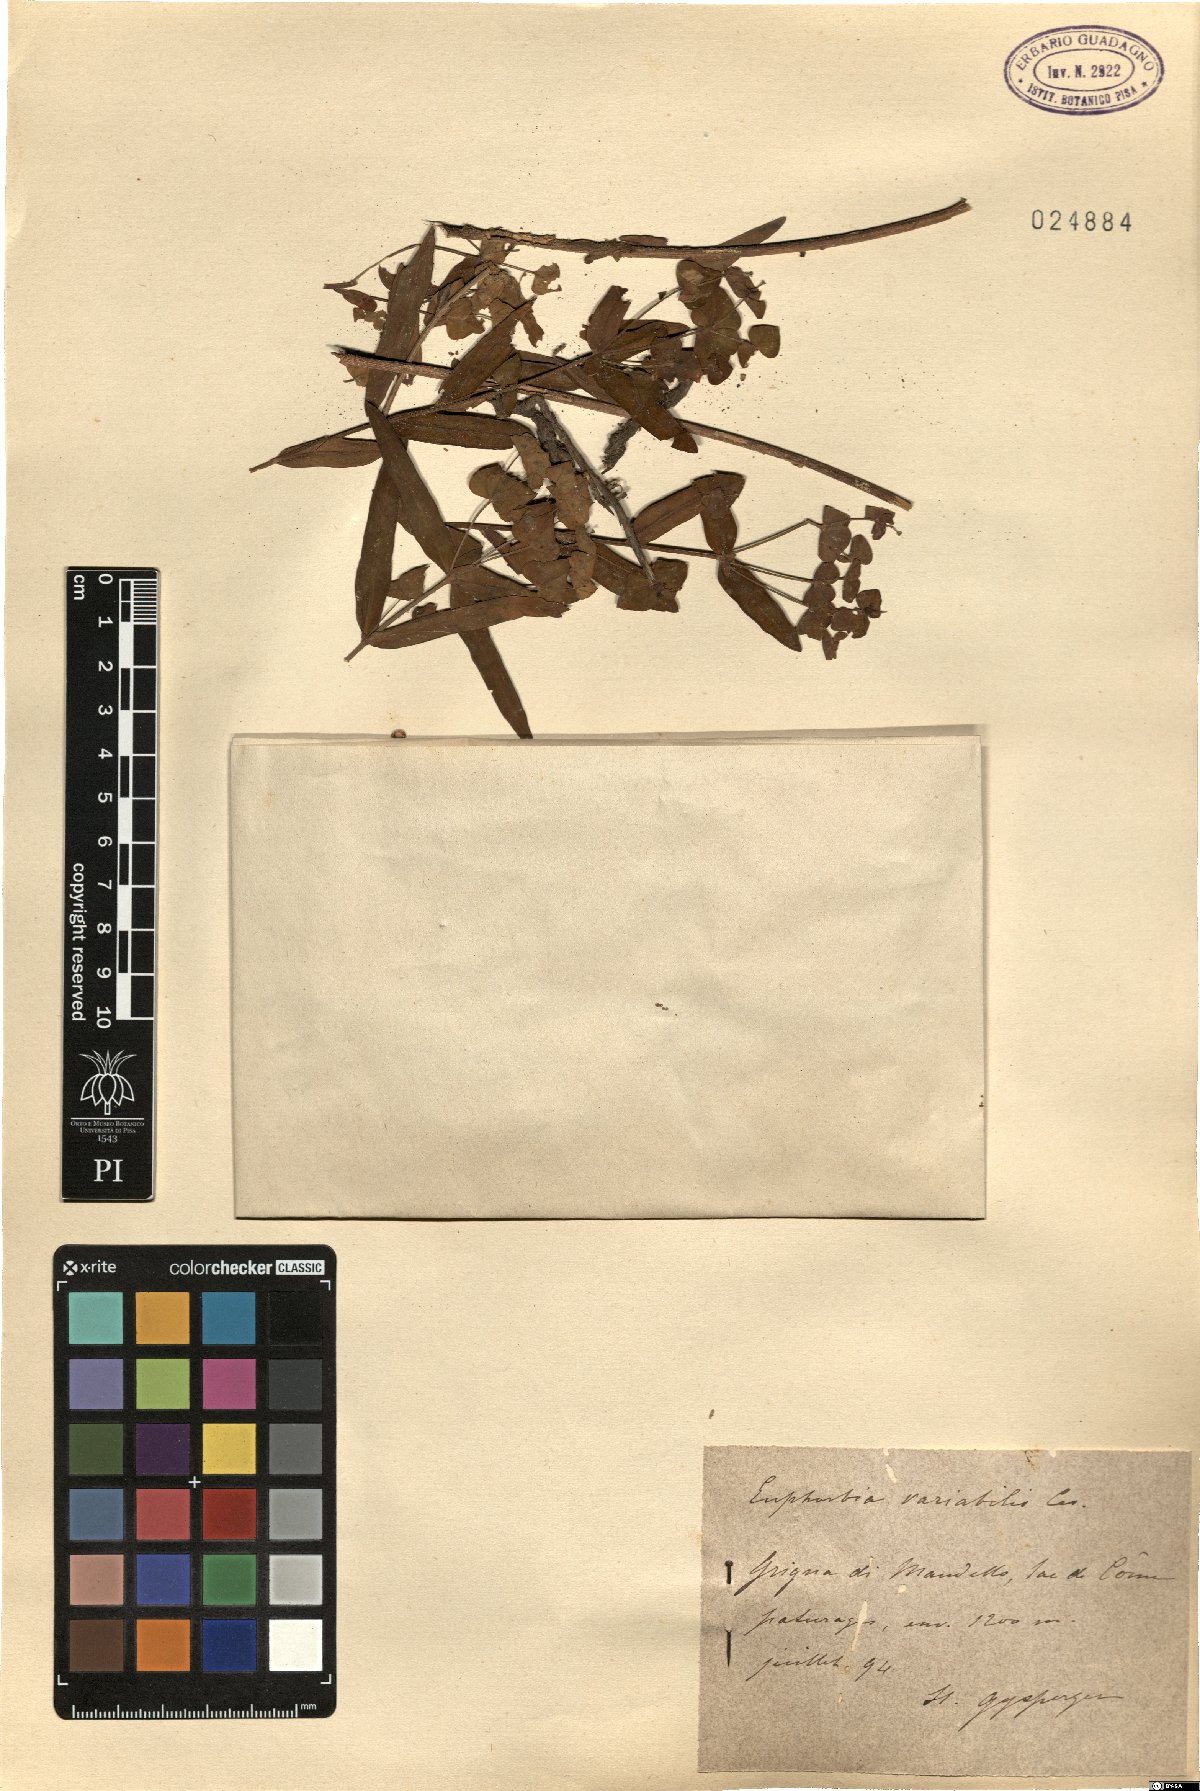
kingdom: Plantae
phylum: Tracheophyta
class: Magnoliopsida
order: Malpighiales
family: Euphorbiaceae
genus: Euphorbia
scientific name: Euphorbia variabilis
